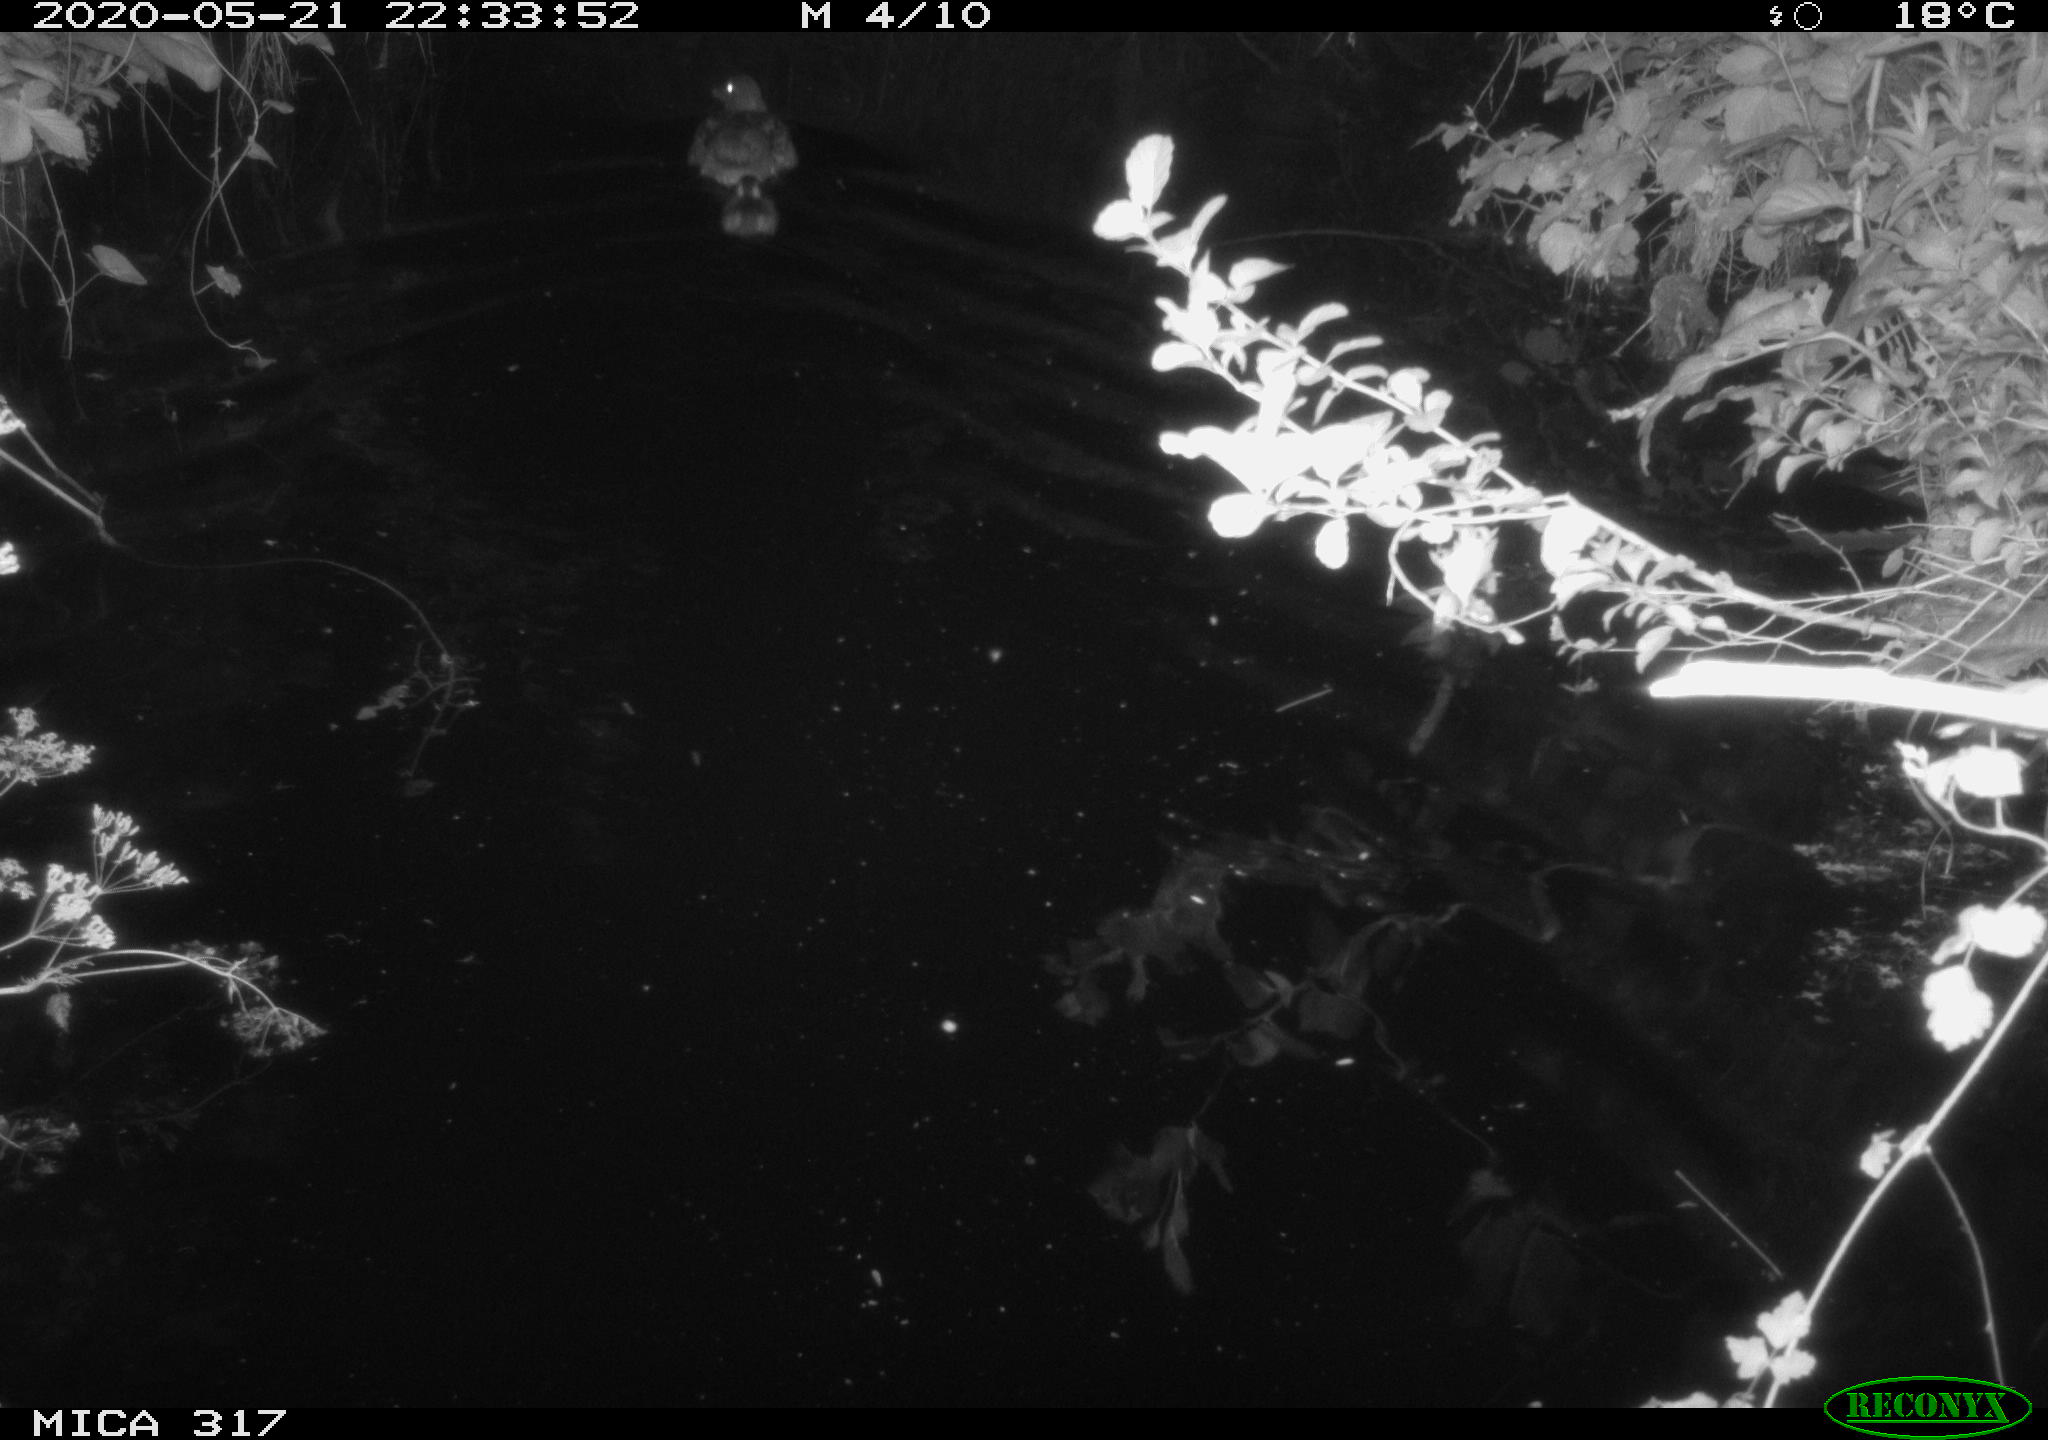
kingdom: Animalia
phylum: Chordata
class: Aves
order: Anseriformes
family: Anatidae
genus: Anas
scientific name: Anas platyrhynchos
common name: Mallard
